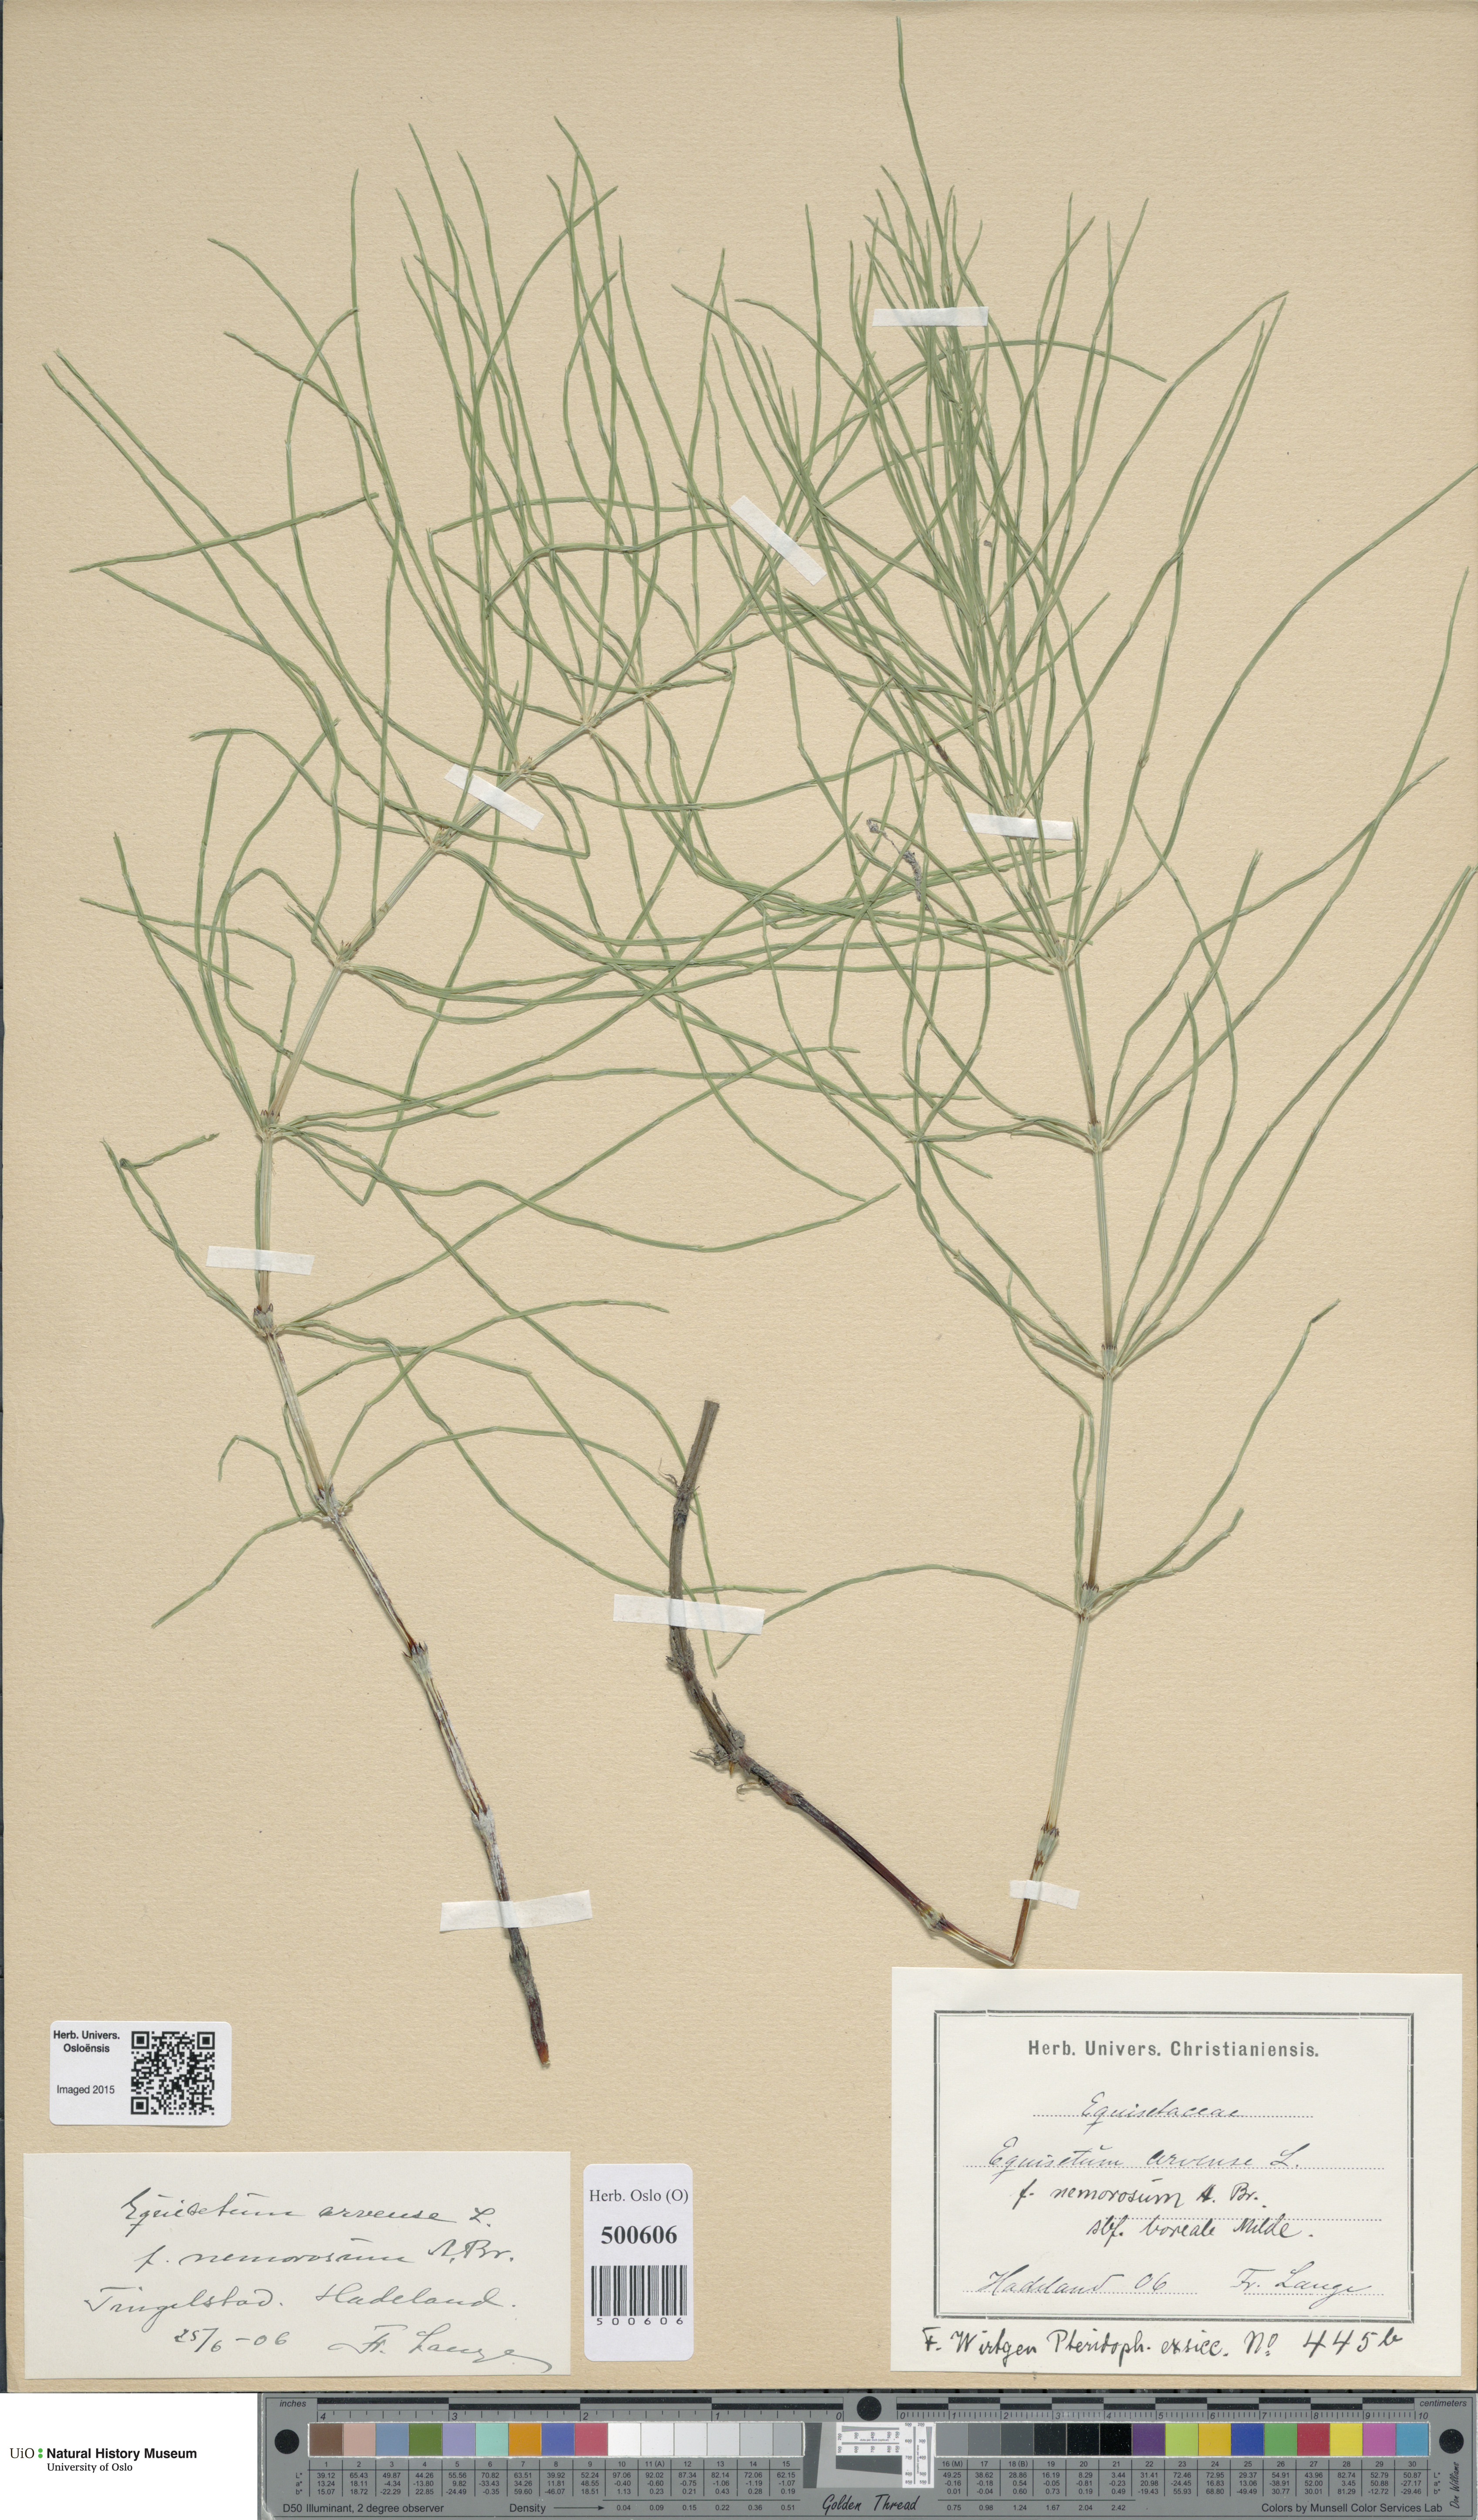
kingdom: Plantae
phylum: Tracheophyta
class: Polypodiopsida
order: Equisetales
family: Equisetaceae
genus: Equisetum
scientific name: Equisetum arvense
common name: Field horsetail
